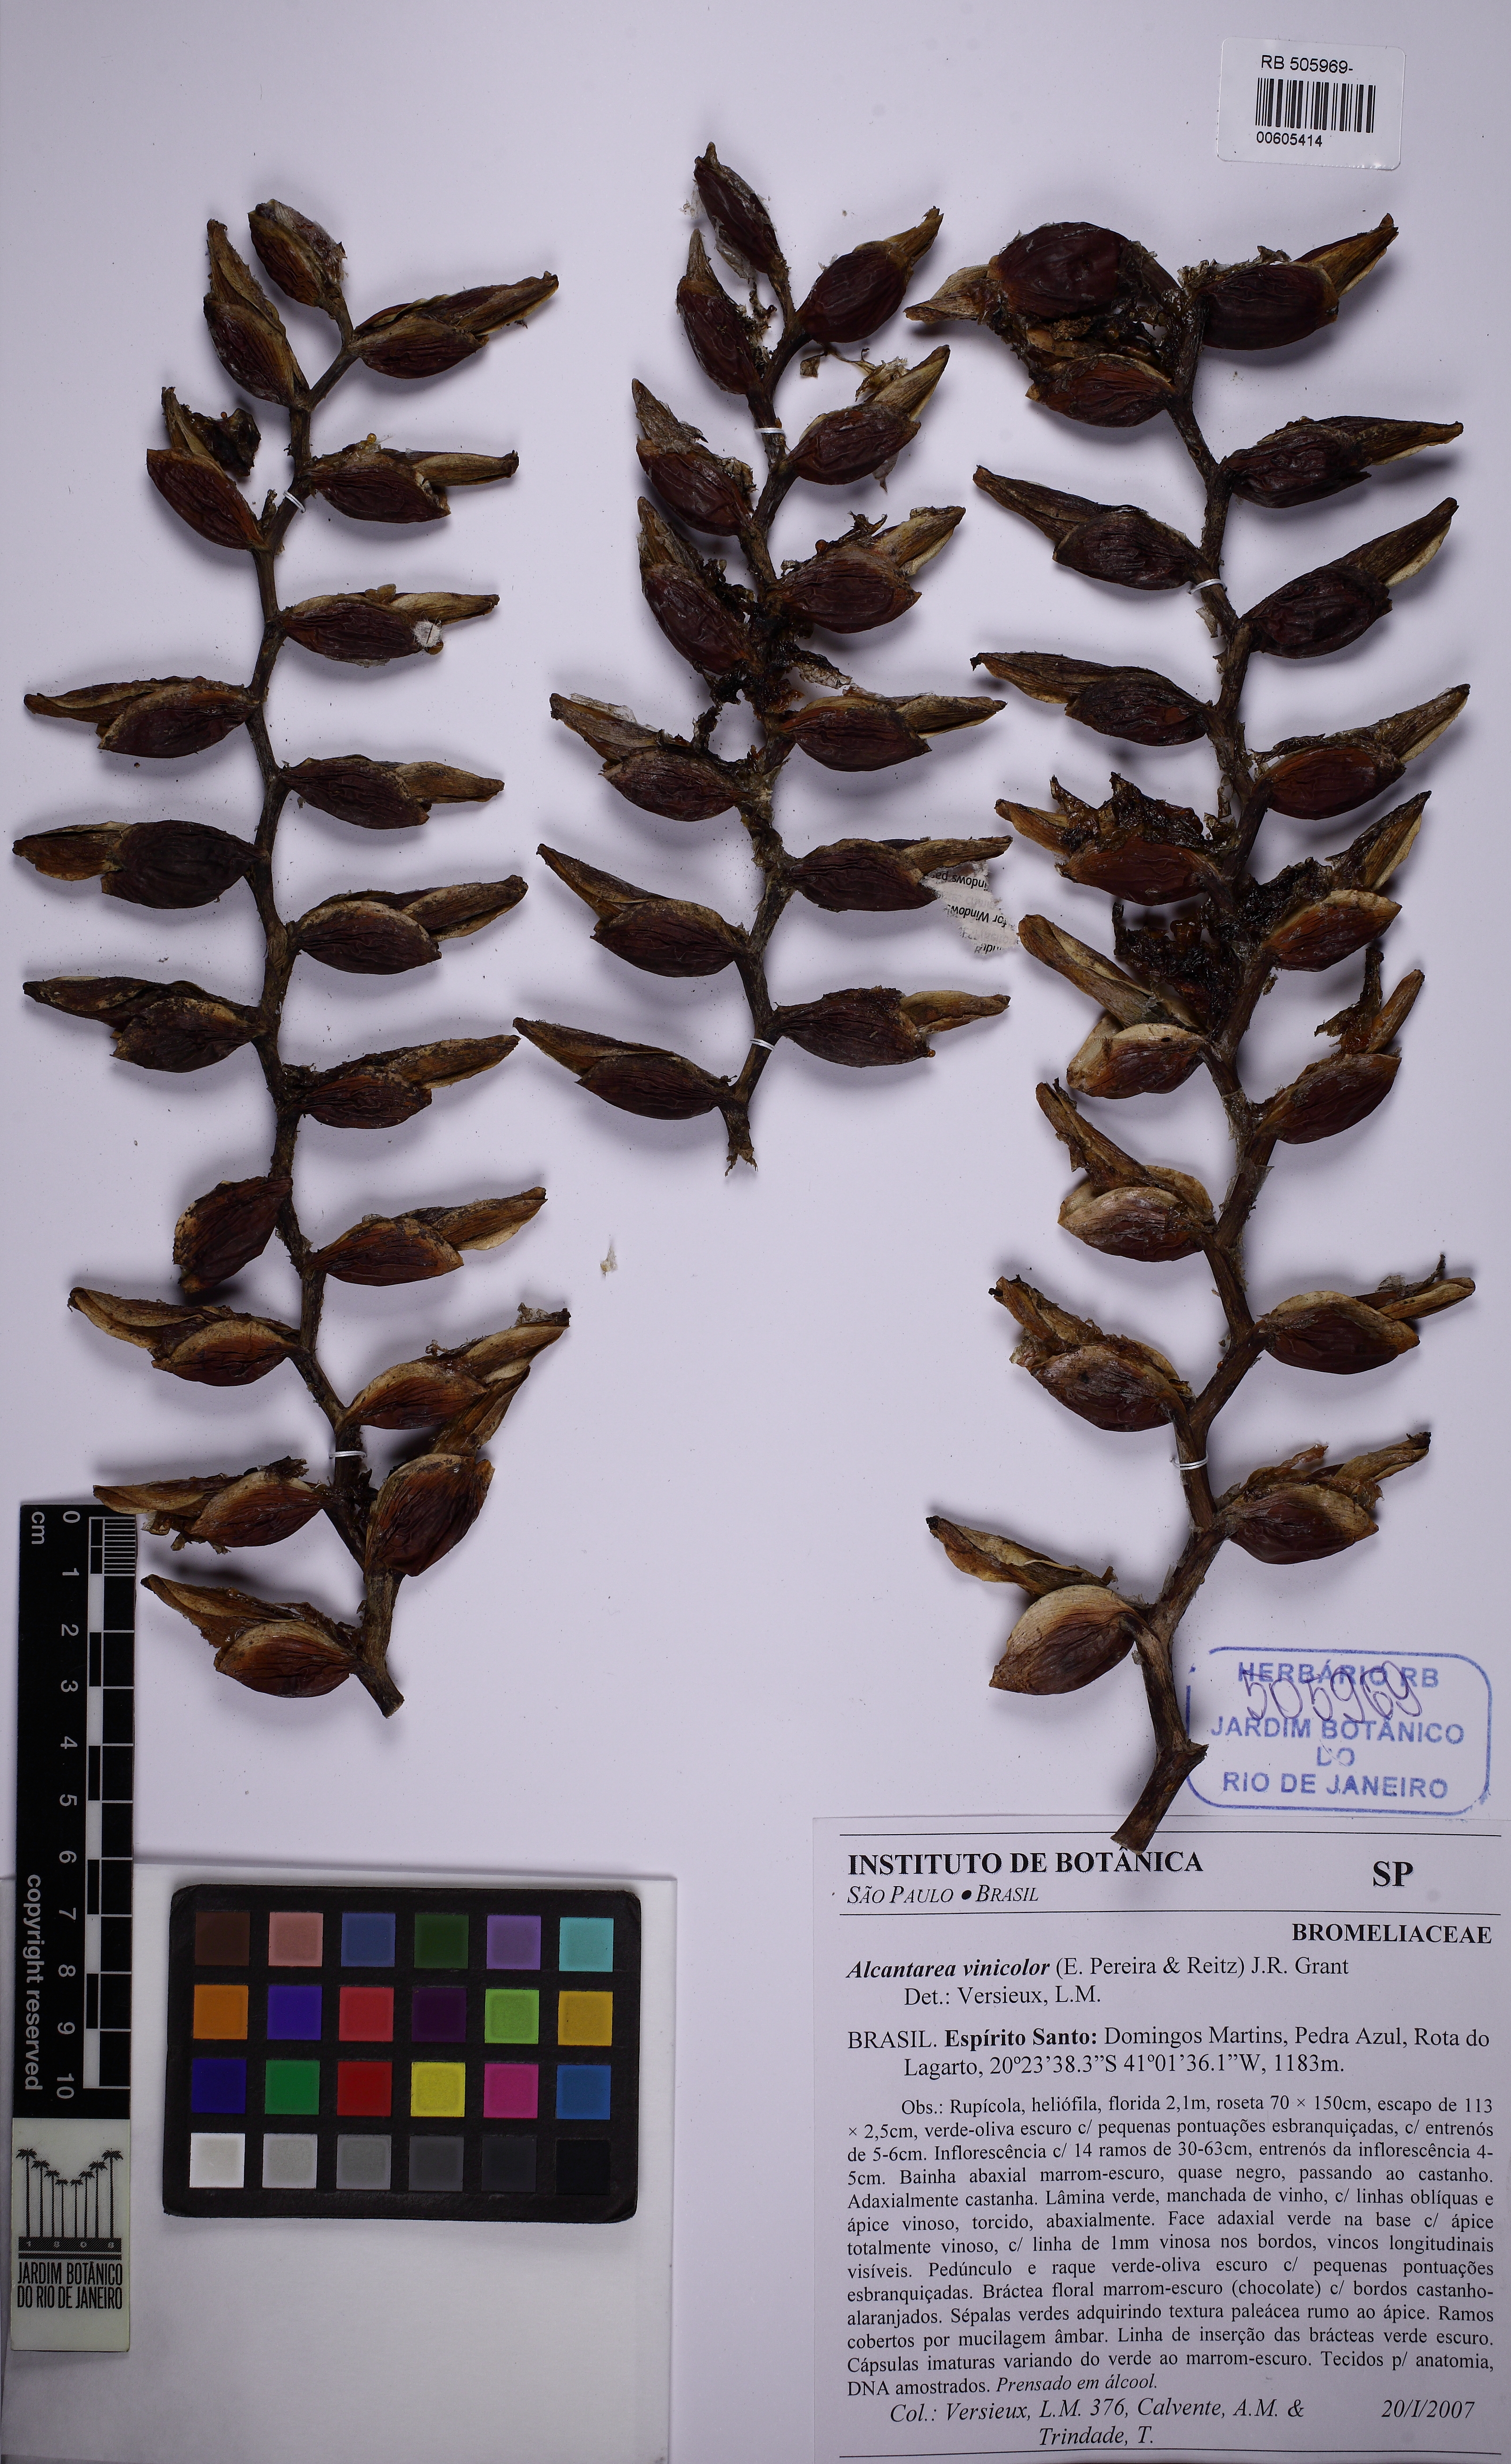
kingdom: Plantae
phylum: Tracheophyta
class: Liliopsida
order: Poales
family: Bromeliaceae
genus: Alcantarea
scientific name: Alcantarea vinicolor
